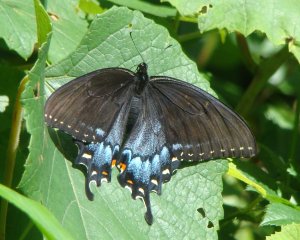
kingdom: Animalia
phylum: Arthropoda
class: Insecta
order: Lepidoptera
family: Papilionidae
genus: Pterourus
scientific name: Pterourus glaucus
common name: Eastern Tiger Swallowtail
